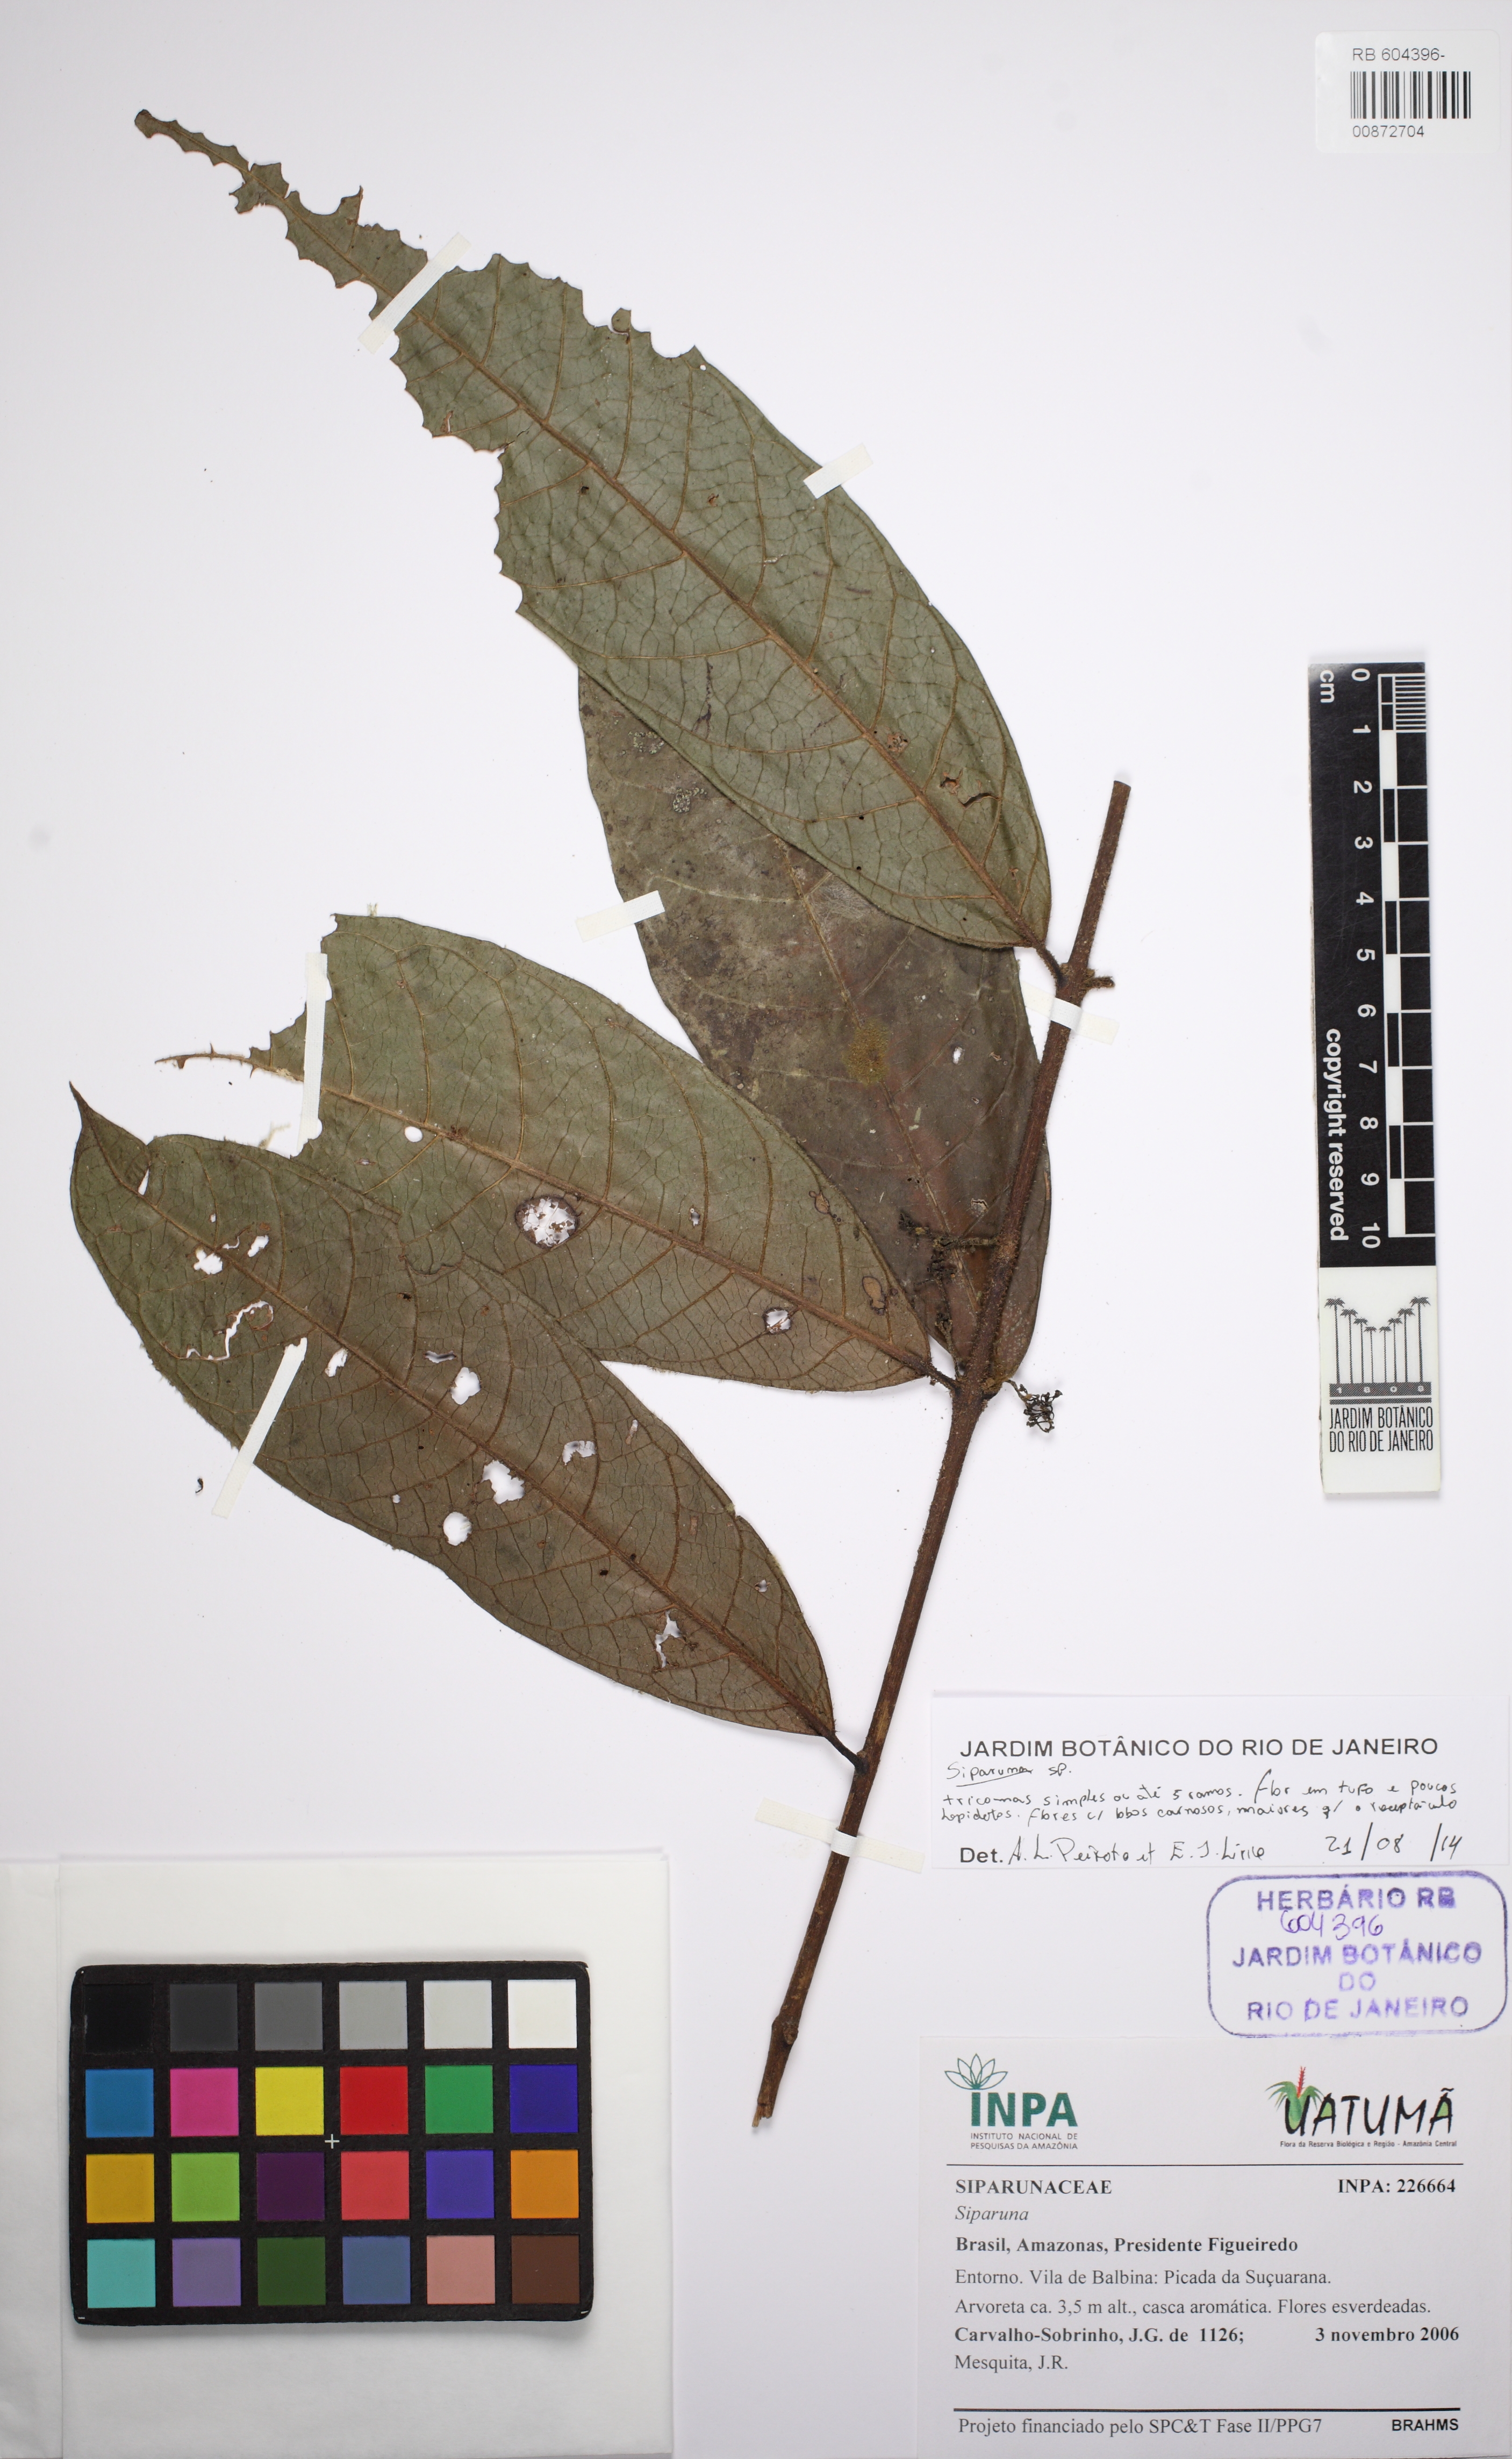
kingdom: Plantae
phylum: Tracheophyta
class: Magnoliopsida
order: Laurales
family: Siparunaceae
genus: Siparuna
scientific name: Siparuna
